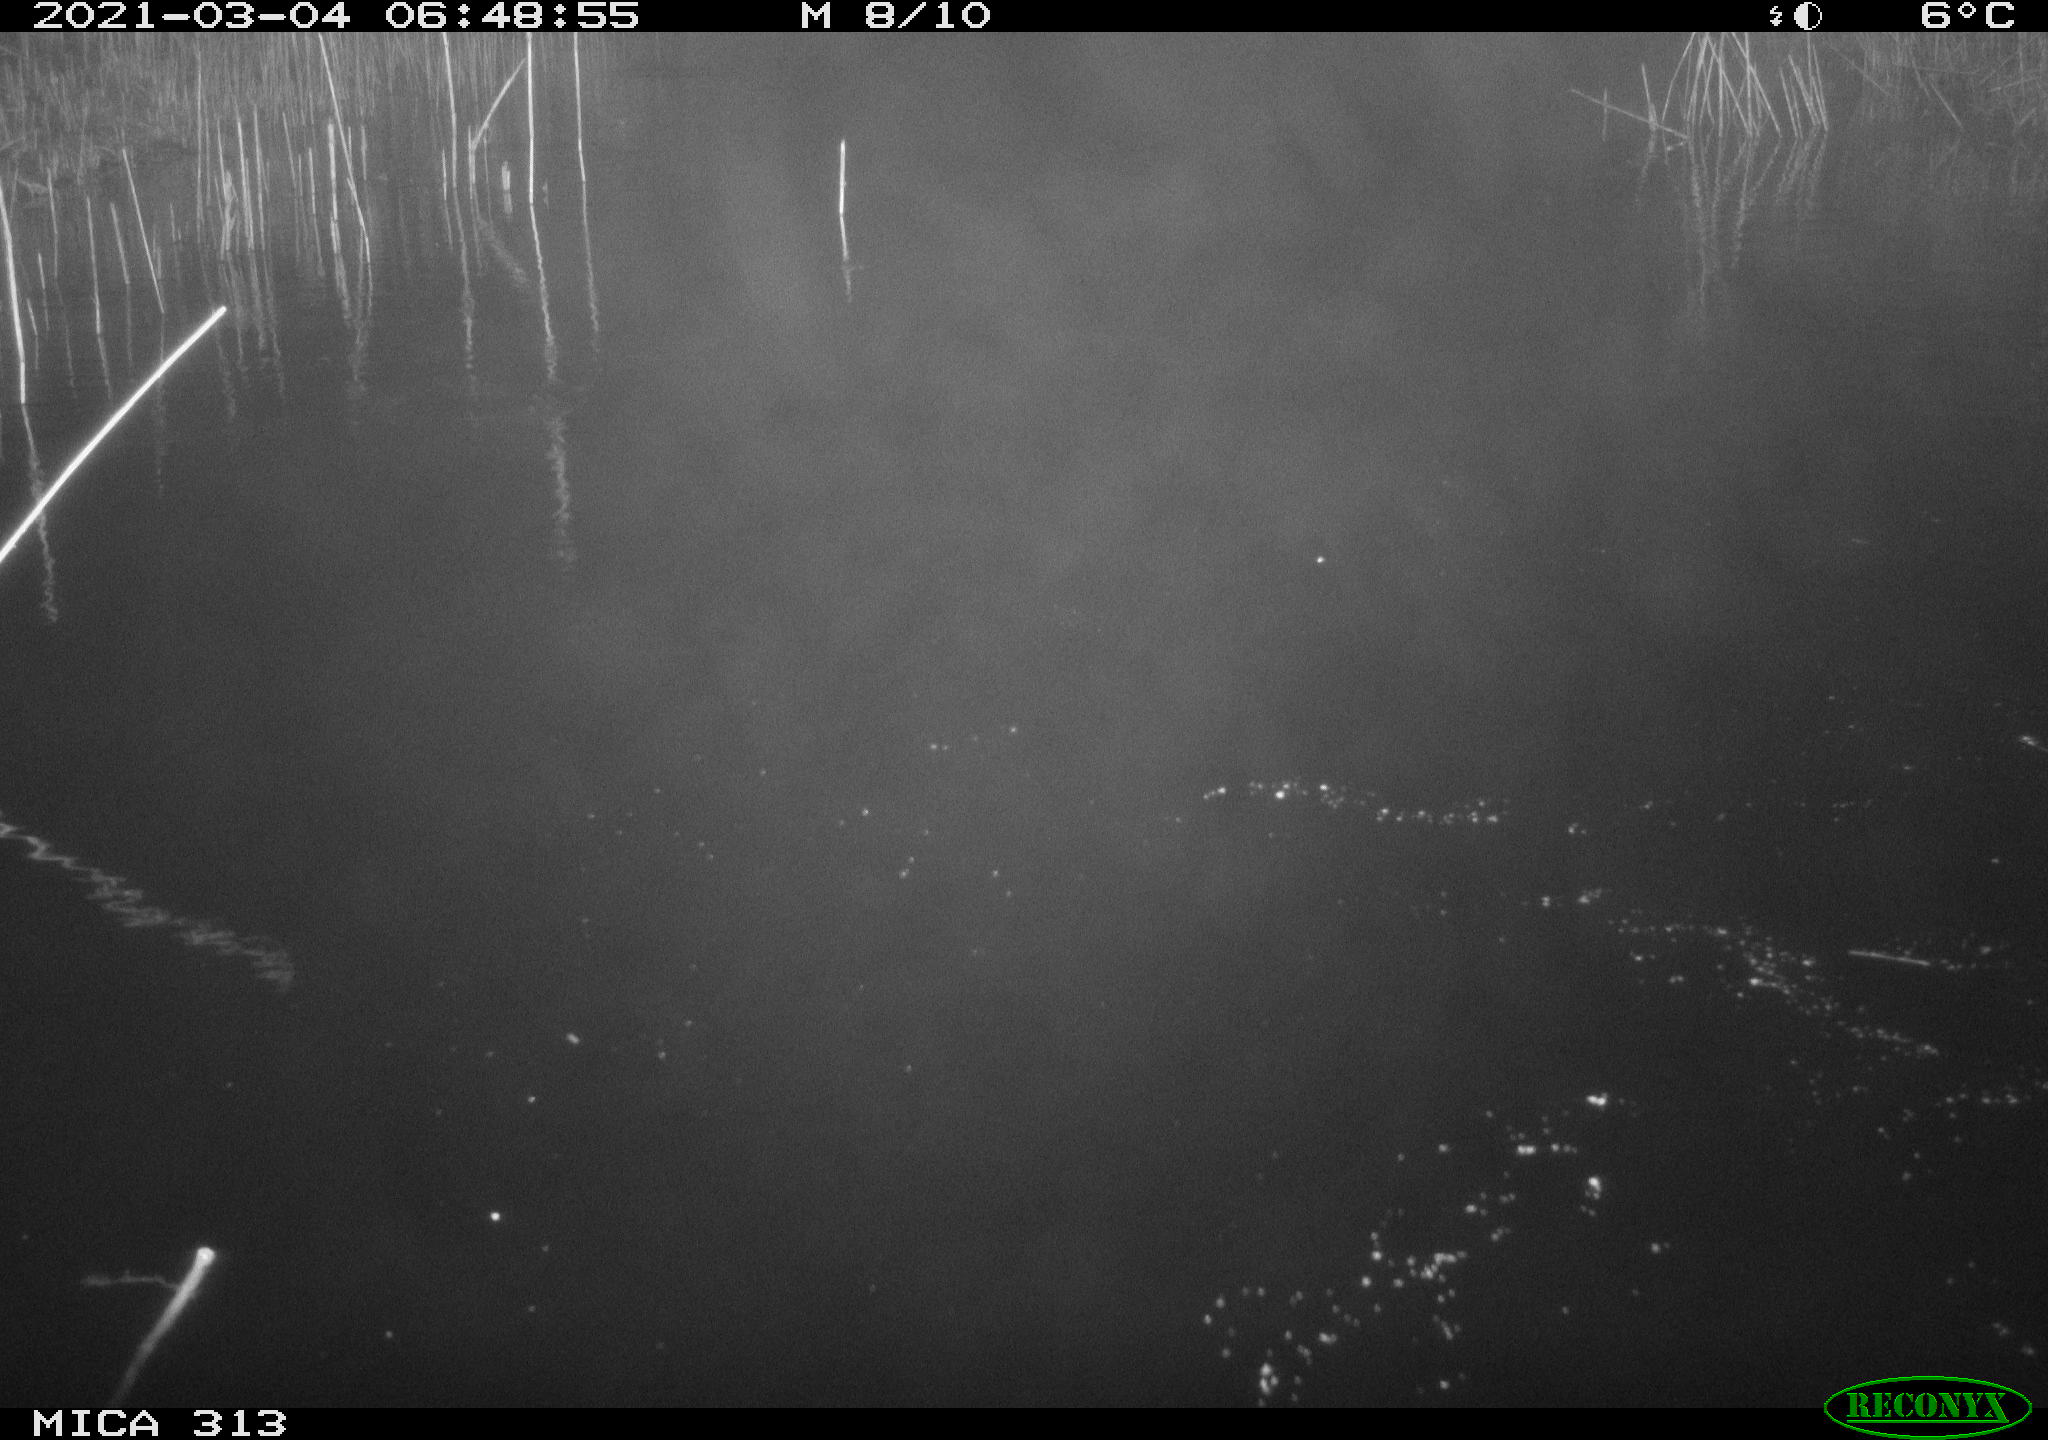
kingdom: Animalia
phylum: Chordata
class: Aves
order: Gruiformes
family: Rallidae
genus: Fulica
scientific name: Fulica atra
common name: Eurasian coot
